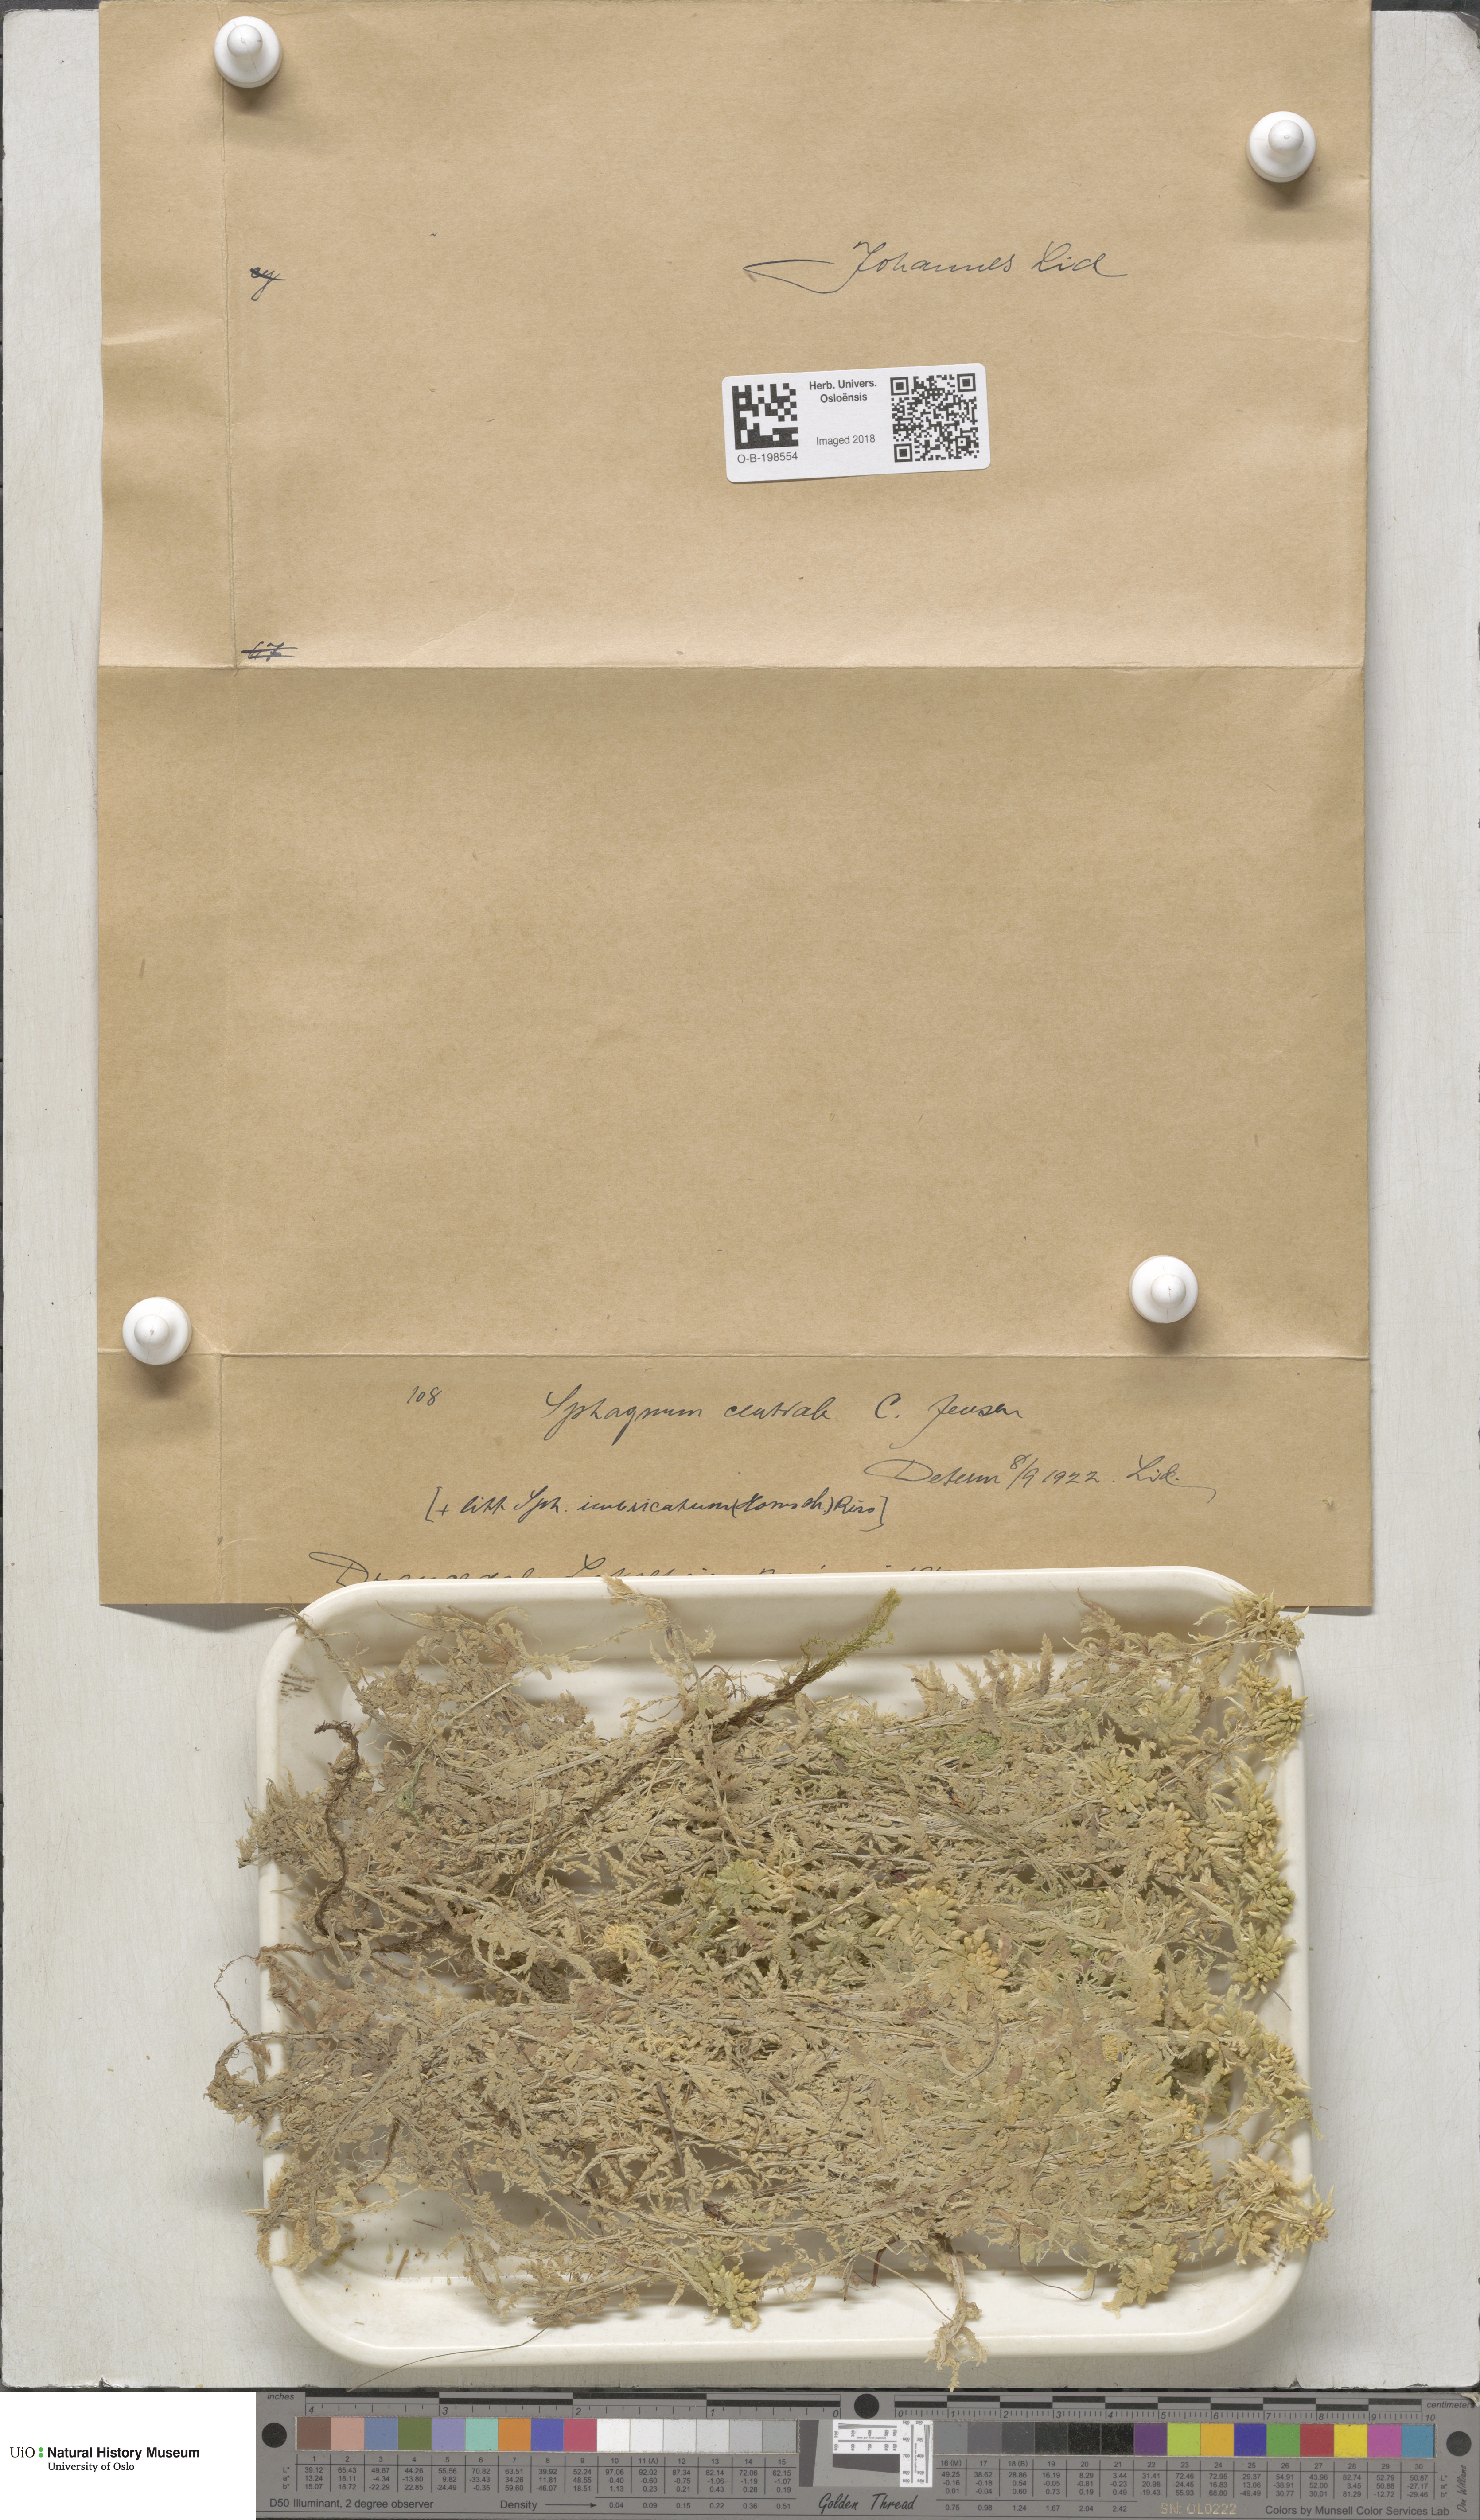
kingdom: Plantae
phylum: Bryophyta
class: Sphagnopsida
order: Sphagnales
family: Sphagnaceae
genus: Sphagnum
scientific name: Sphagnum centrale
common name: Central peat moss
